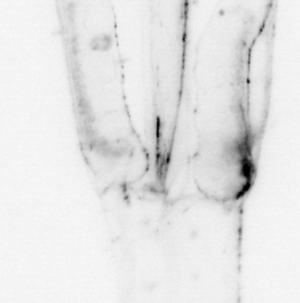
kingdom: Animalia
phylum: Chaetognatha
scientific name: Chaetognatha
